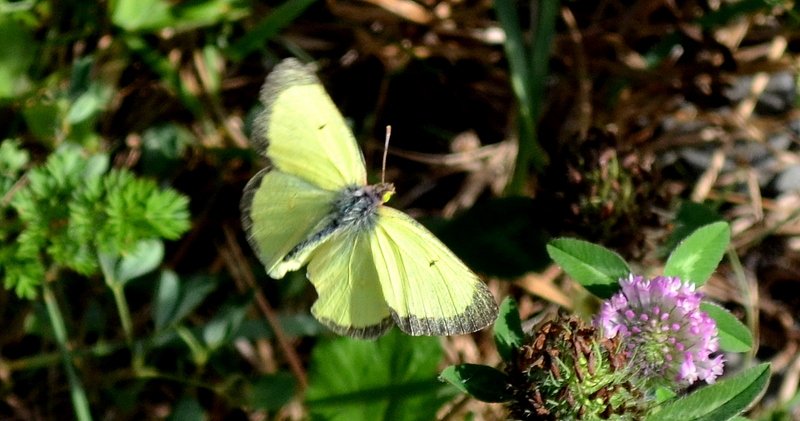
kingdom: Animalia
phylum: Arthropoda
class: Insecta
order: Lepidoptera
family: Pieridae
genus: Colias
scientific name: Colias philodice
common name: Clouded Sulphur
